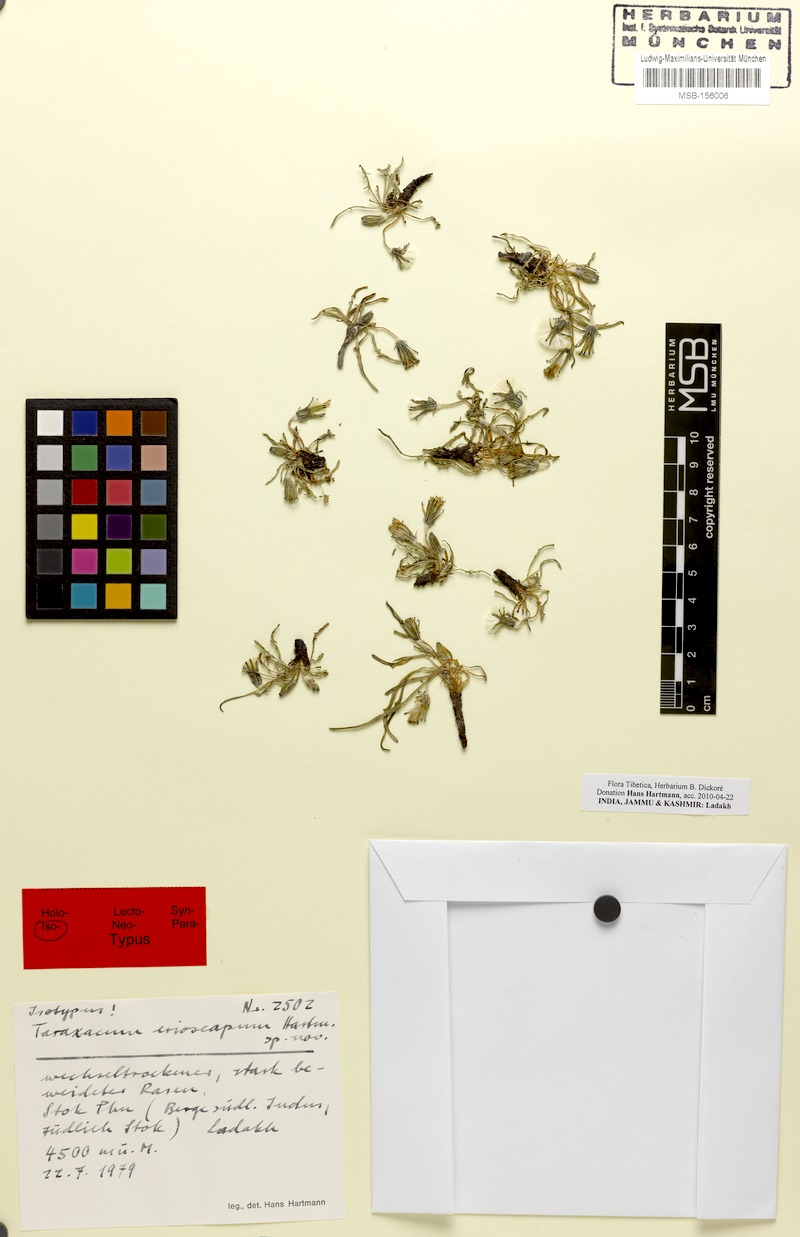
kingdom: Plantae
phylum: Tracheophyta
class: Magnoliopsida
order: Asterales
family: Asteraceae
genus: Taraxacum
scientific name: Taraxacum erioscapum
